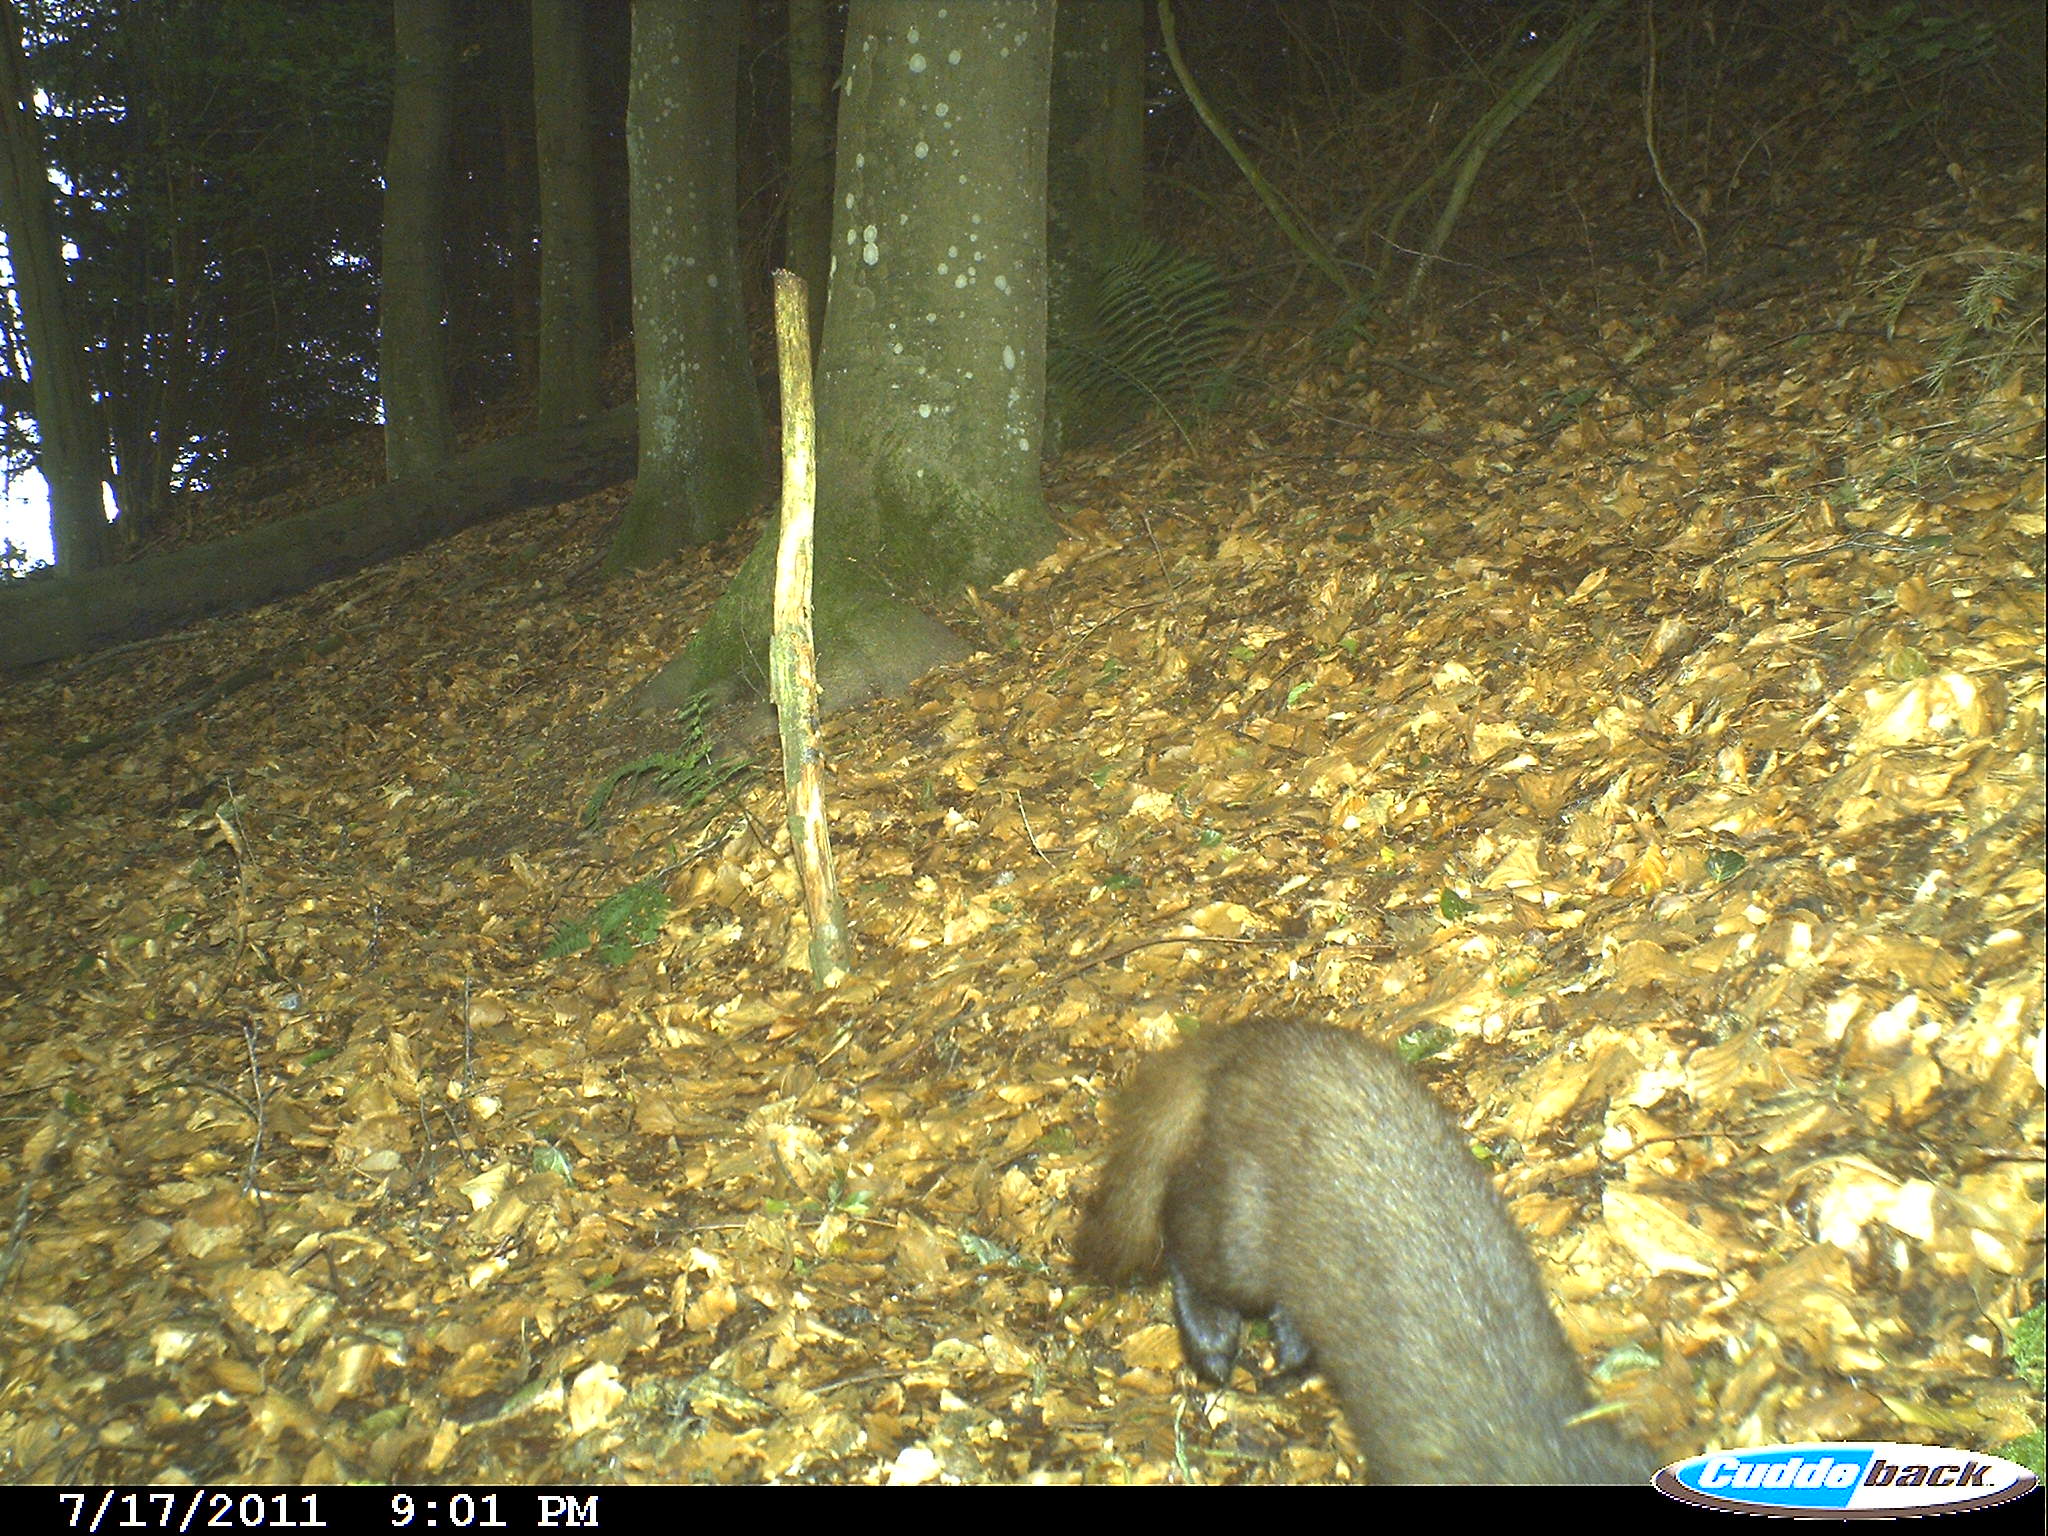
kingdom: Animalia
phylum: Chordata
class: Mammalia
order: Carnivora
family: Mustelidae
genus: Martes
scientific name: Martes
